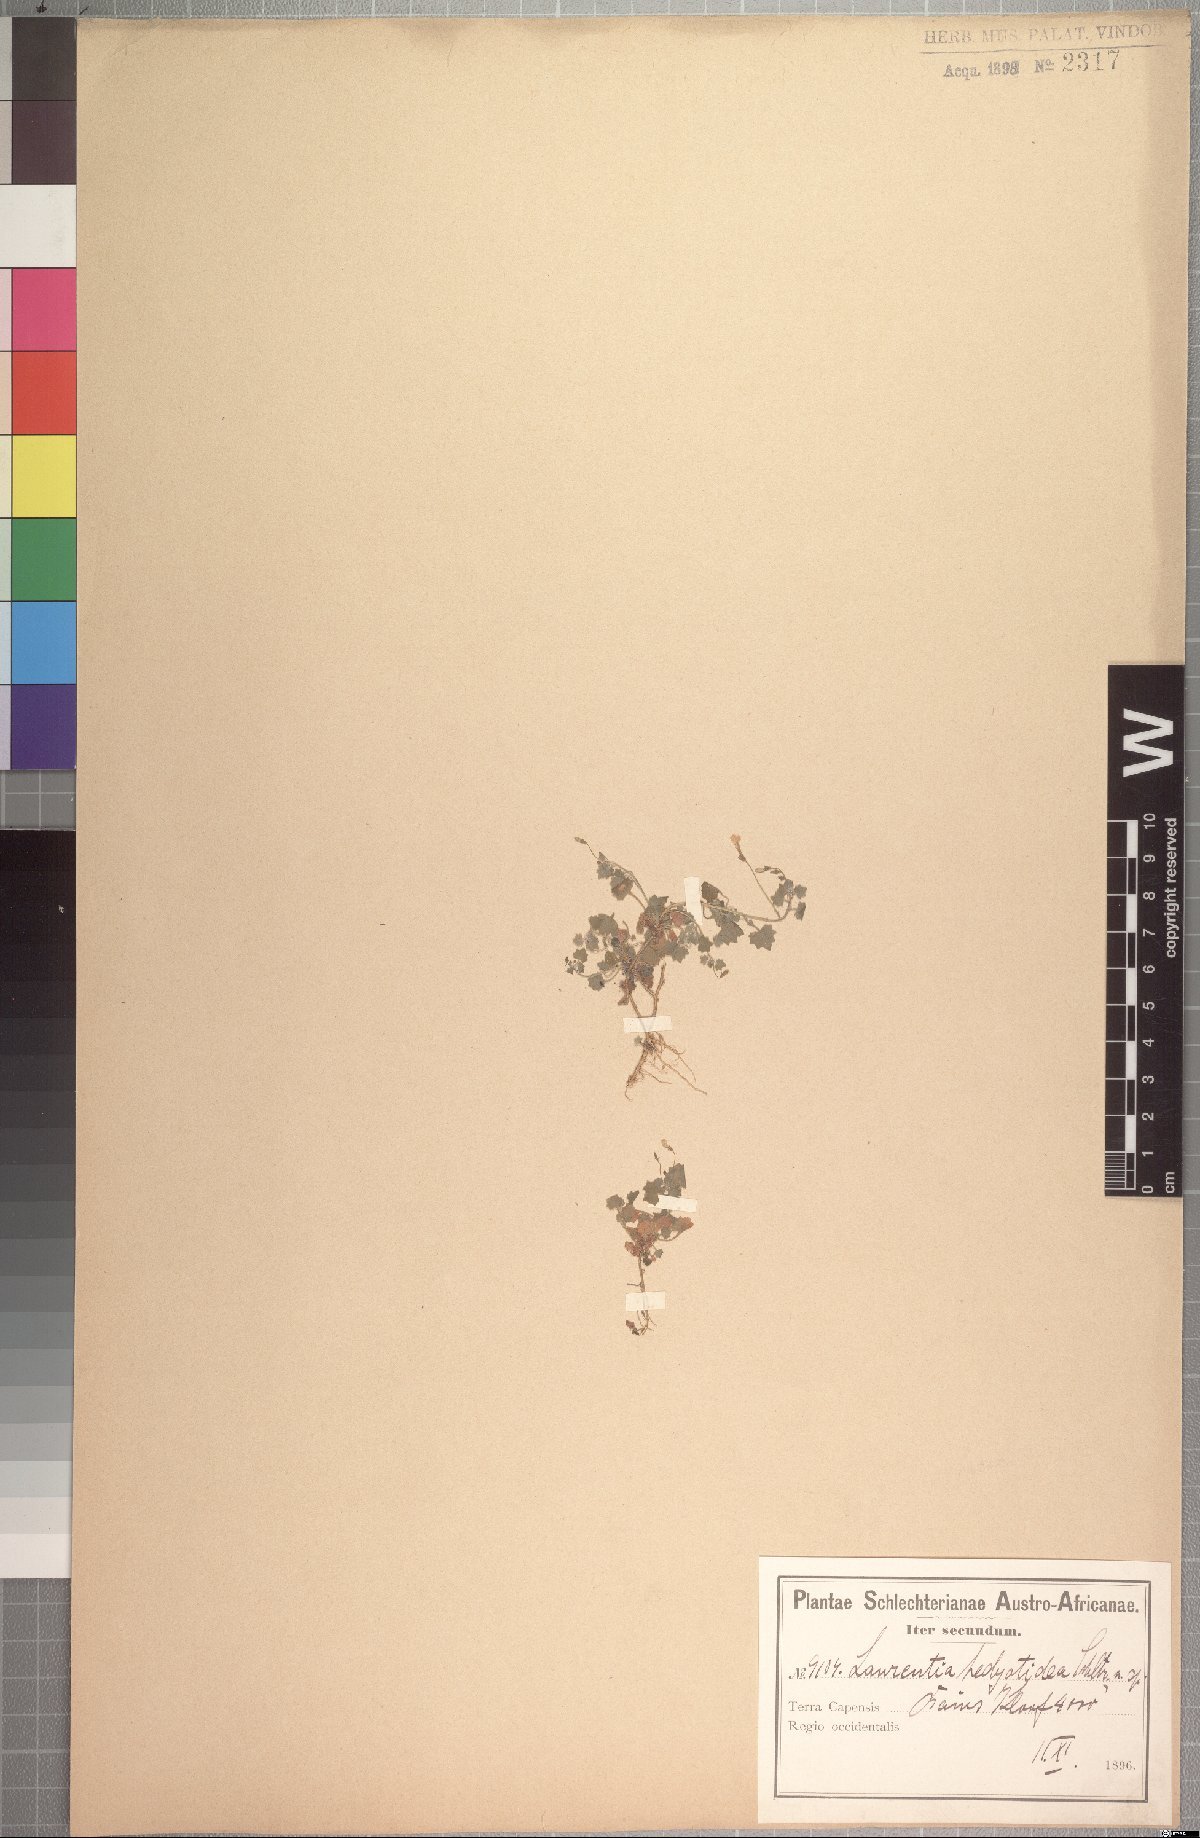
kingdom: Plantae
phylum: Tracheophyta
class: Magnoliopsida
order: Asterales
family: Campanulaceae
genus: Wimmerella
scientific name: Wimmerella hedyotidea
